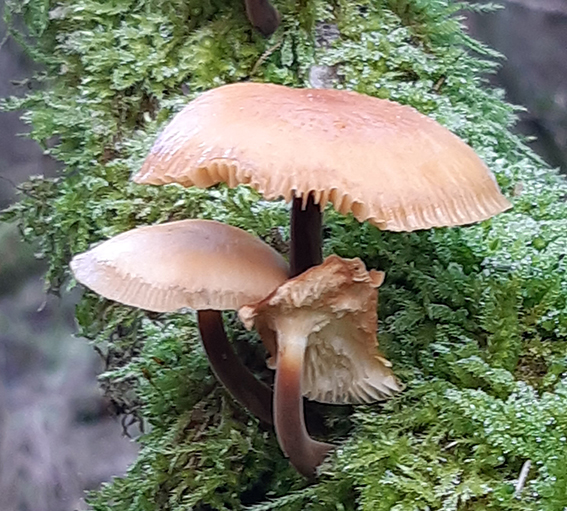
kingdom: Fungi
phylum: Basidiomycota
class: Agaricomycetes
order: Agaricales
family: Physalacriaceae
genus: Flammulina
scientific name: Flammulina
